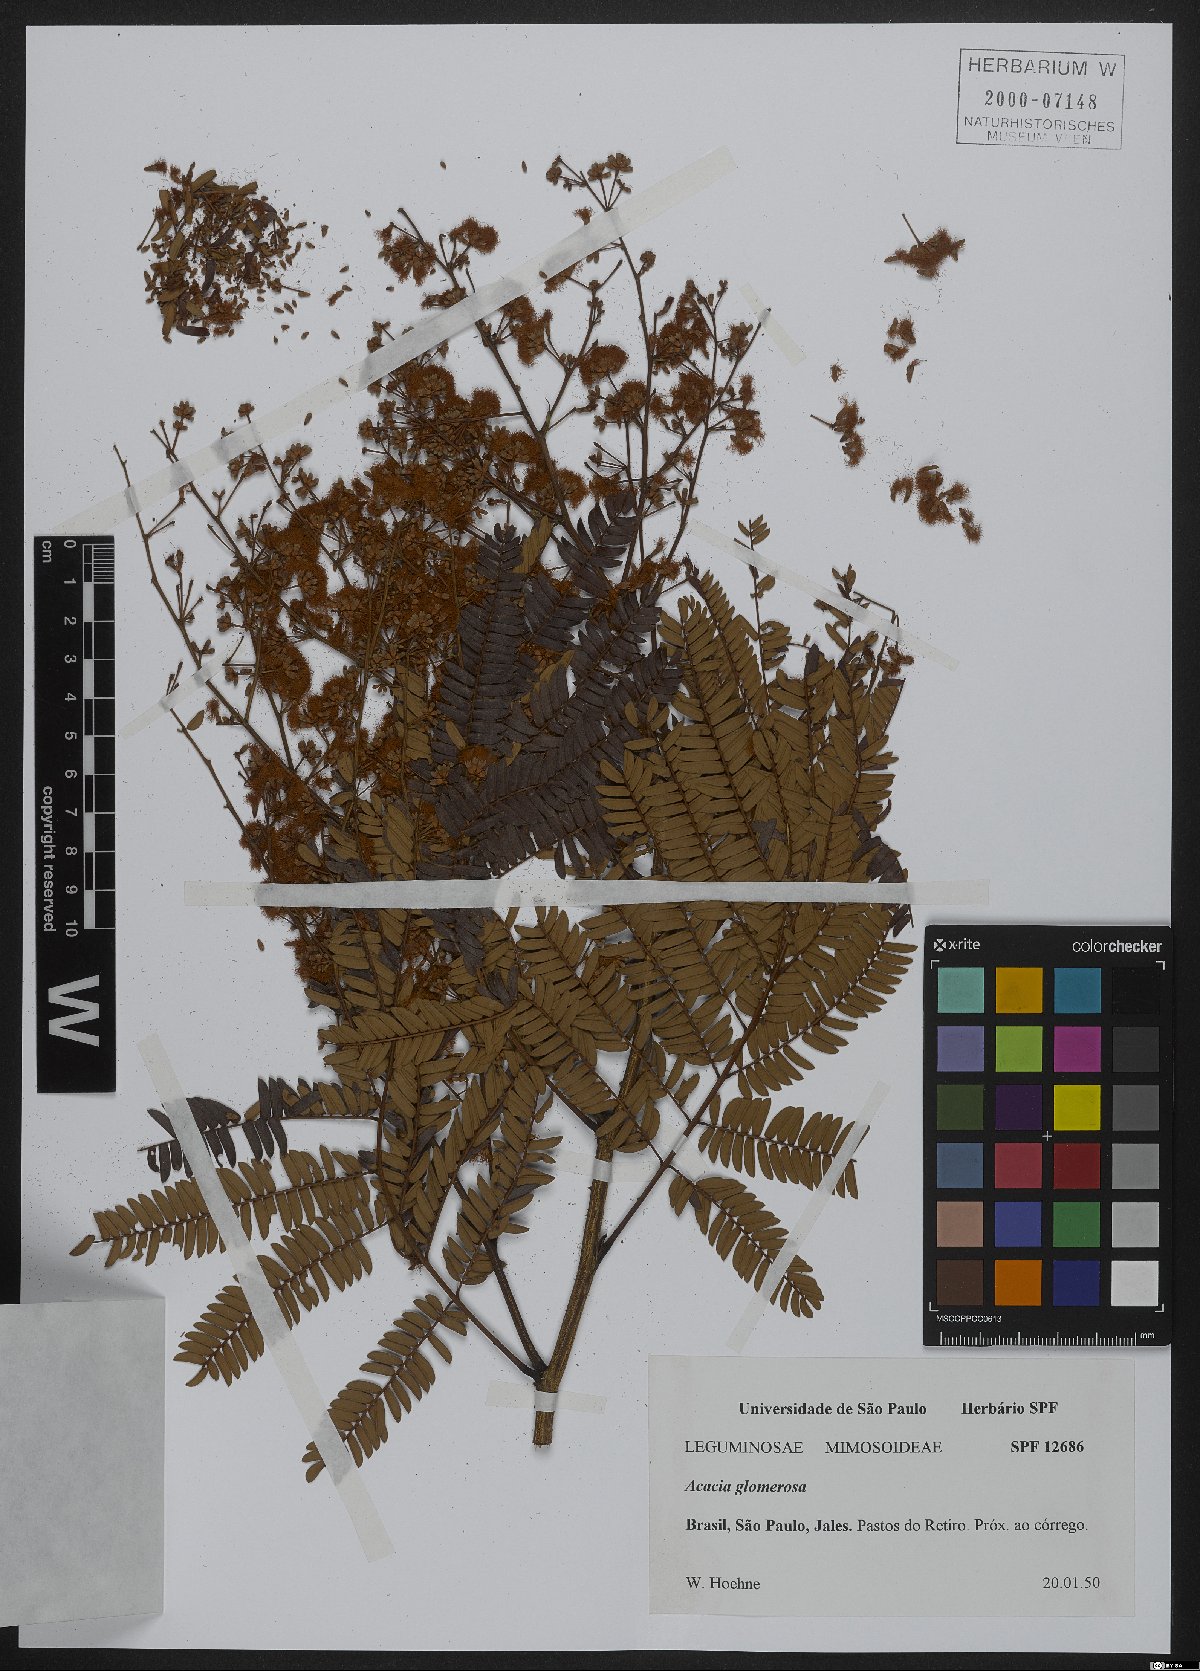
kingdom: Plantae
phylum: Tracheophyta
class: Magnoliopsida
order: Fabales
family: Fabaceae
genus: Senegalia
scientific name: Senegalia polyphylla
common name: White-tamarind
